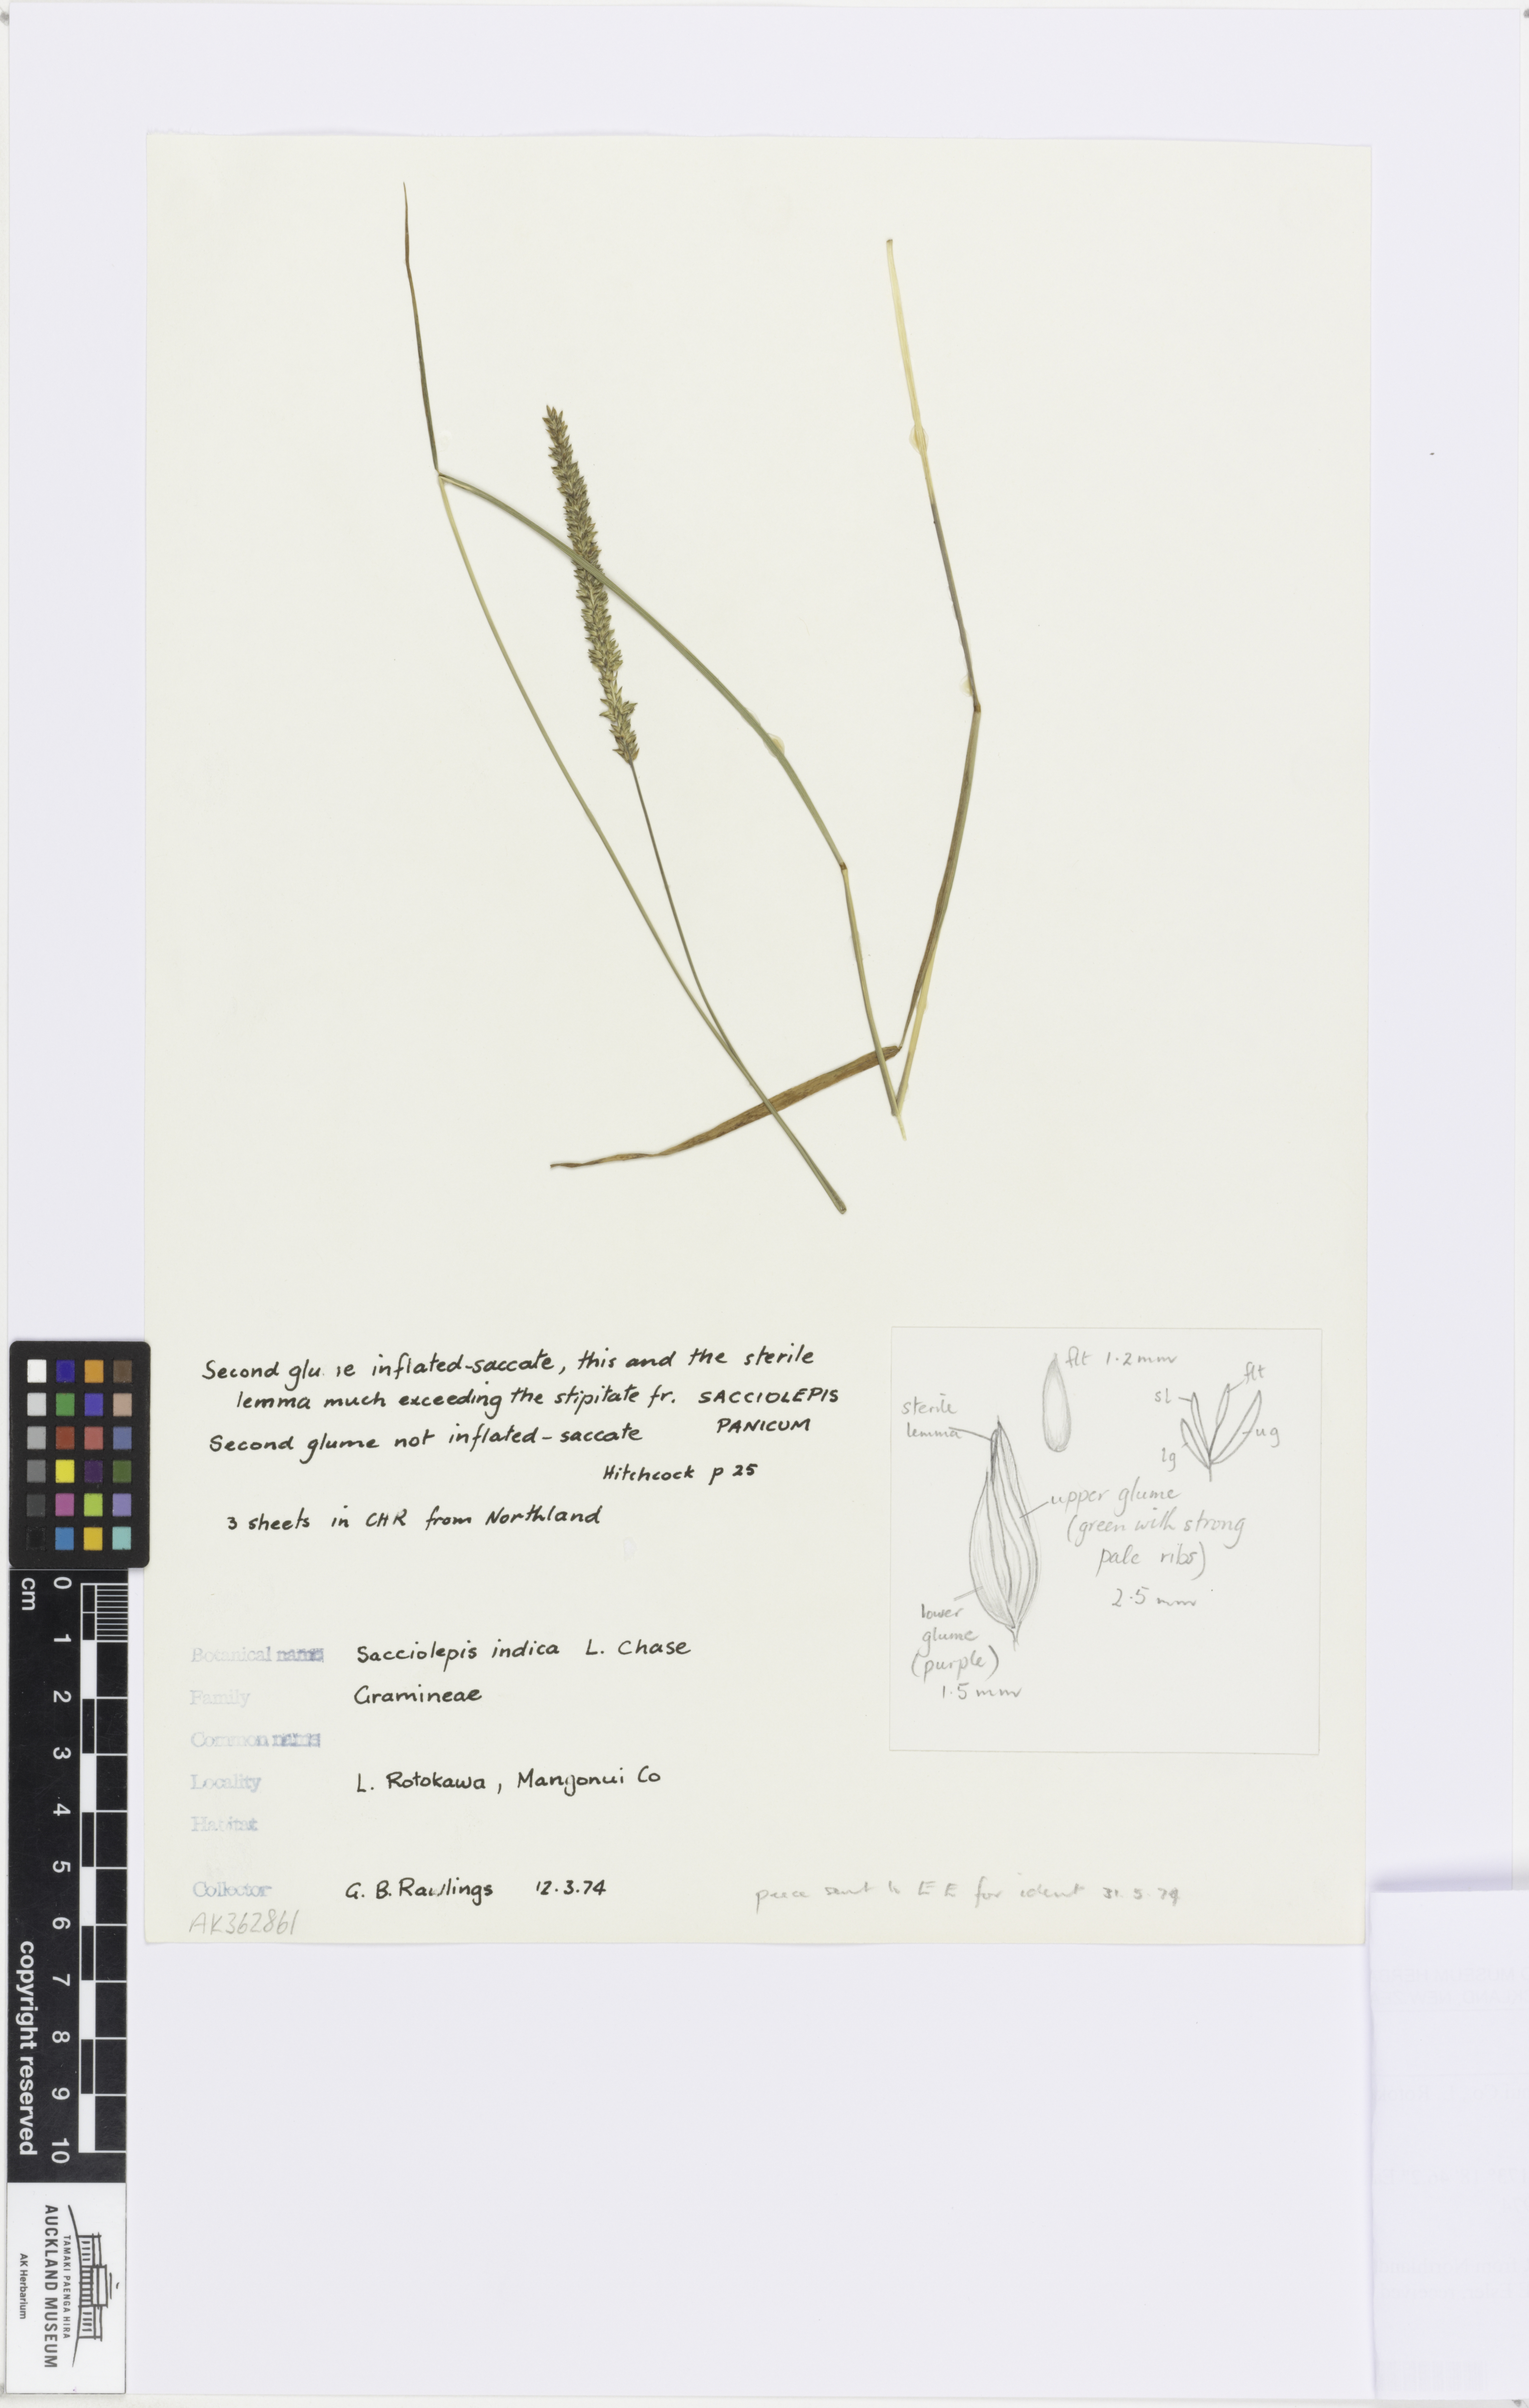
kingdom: Plantae
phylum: Tracheophyta
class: Liliopsida
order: Poales
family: Poaceae
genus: Sacciolepis
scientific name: Sacciolepis indica
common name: Glenwoodgrass
